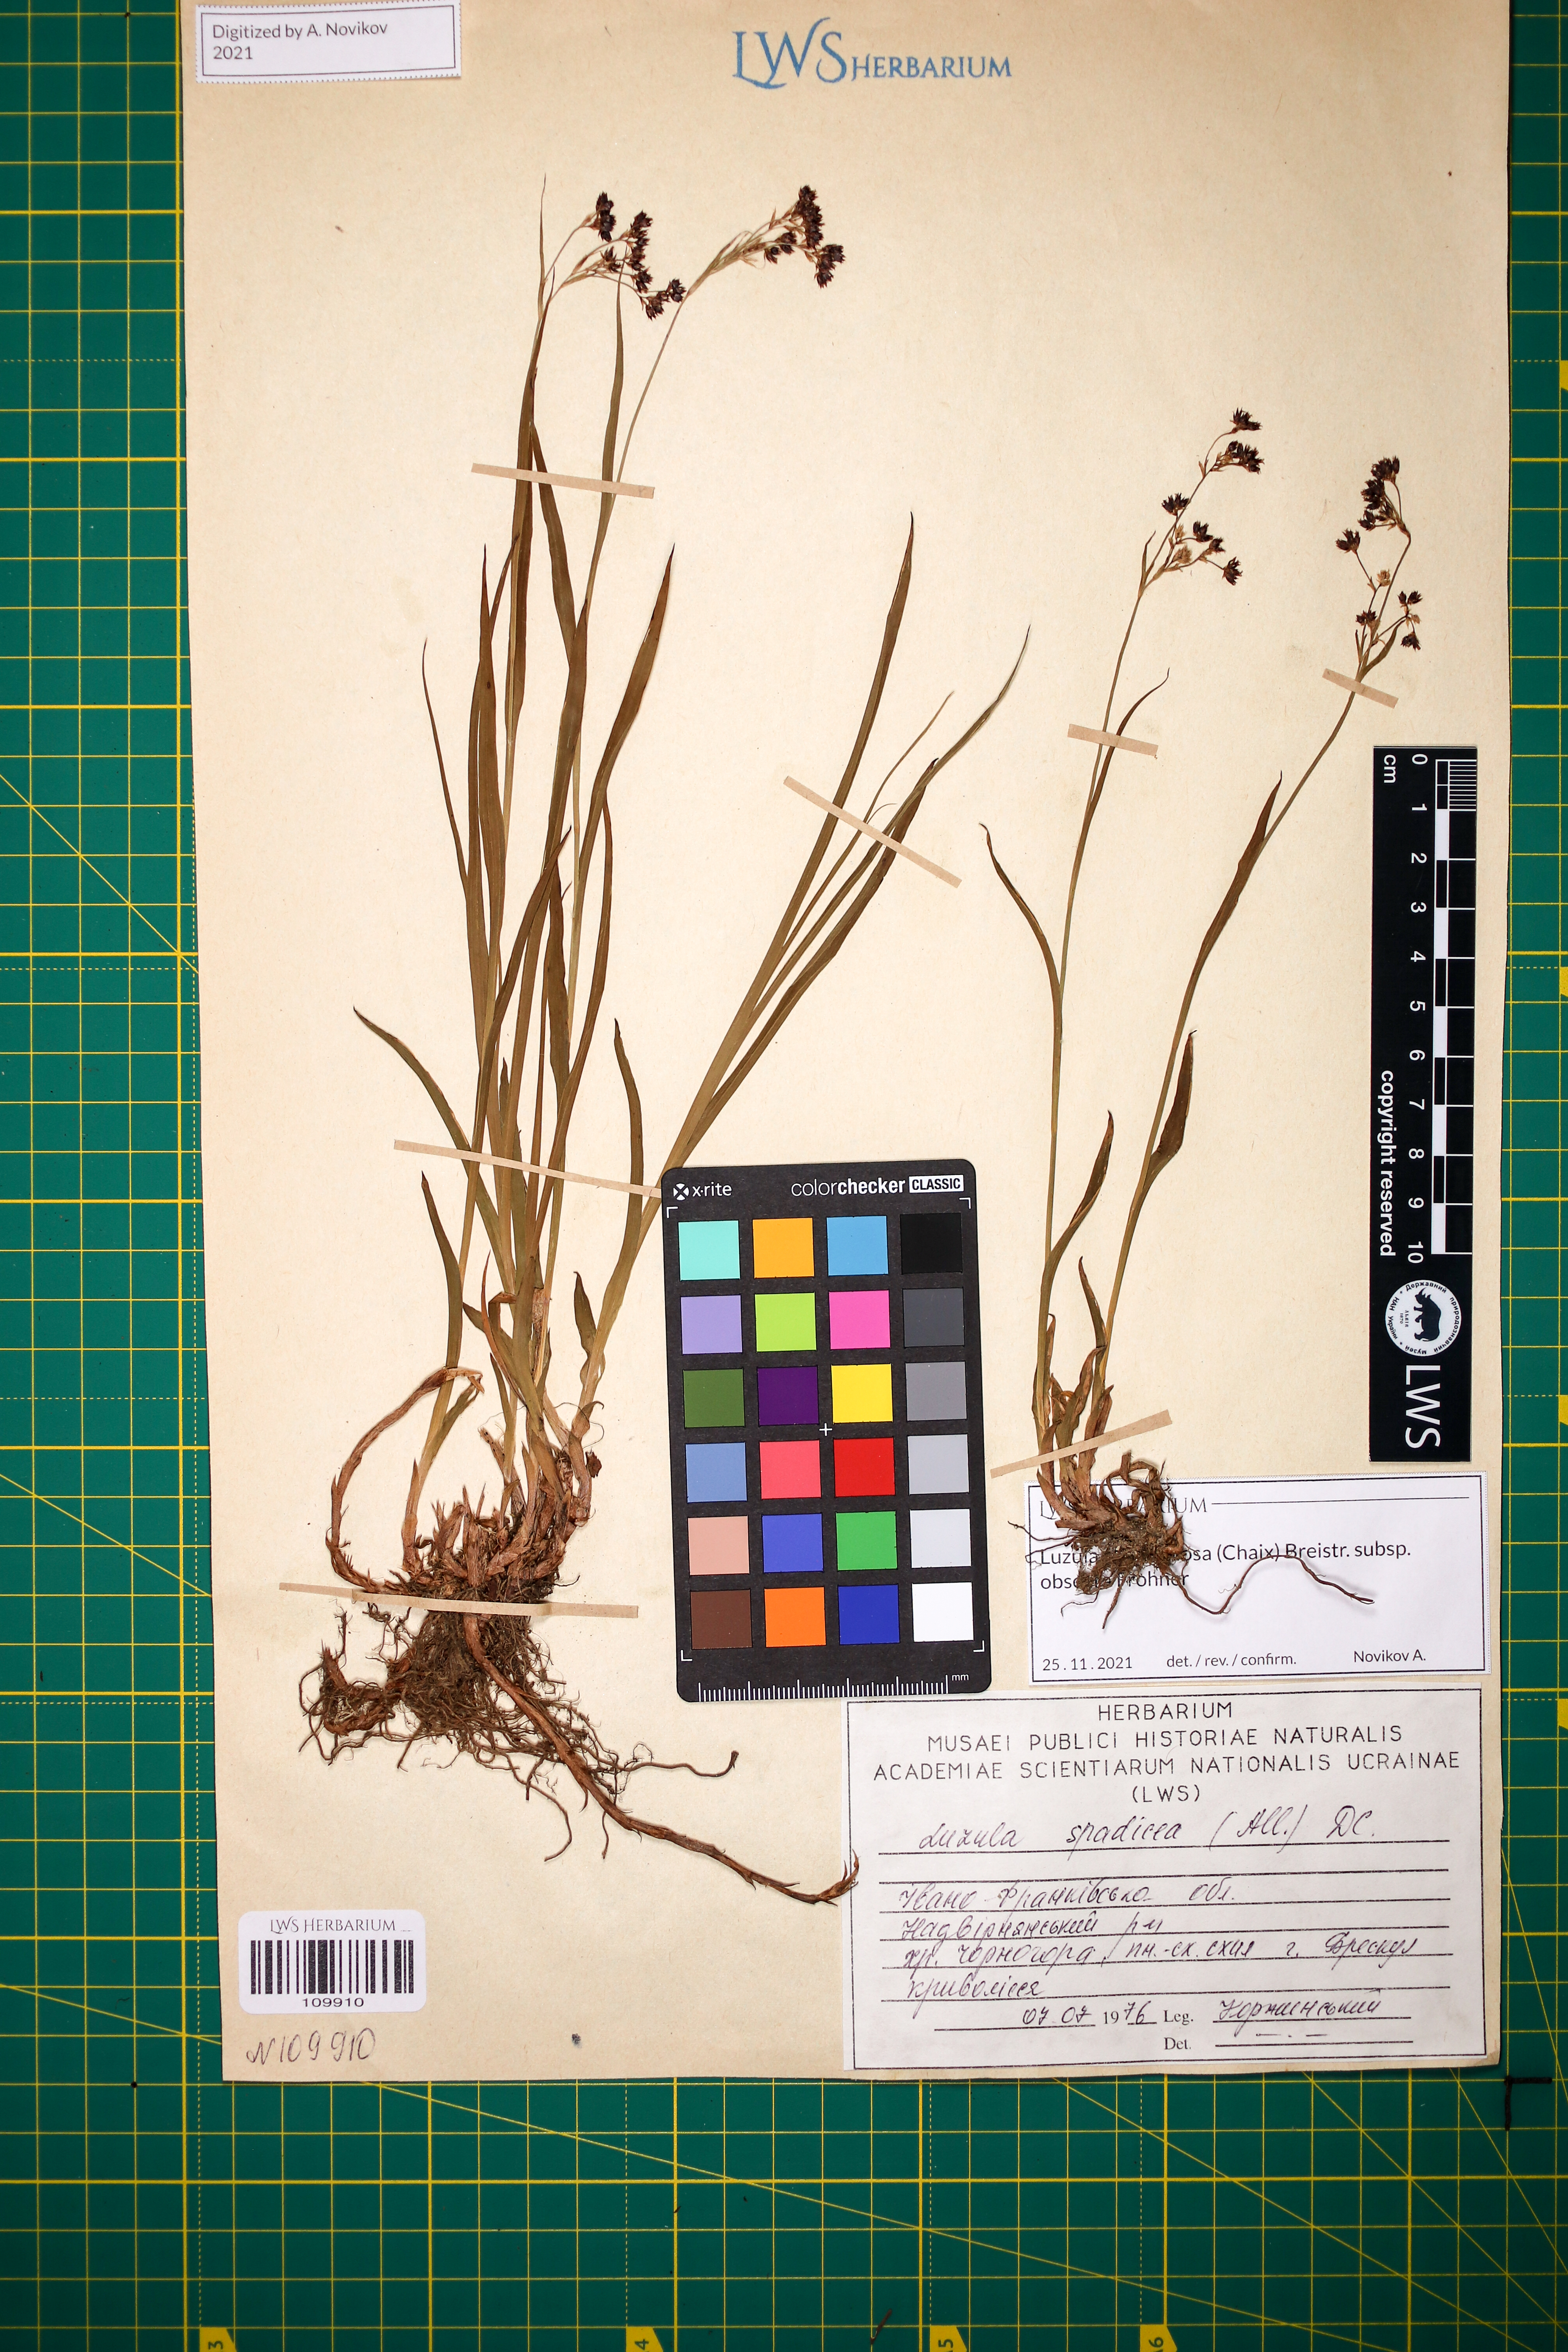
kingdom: Plantae
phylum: Tracheophyta
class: Liliopsida
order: Poales
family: Juncaceae
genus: Luzula
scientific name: Luzula alpinopilosa
